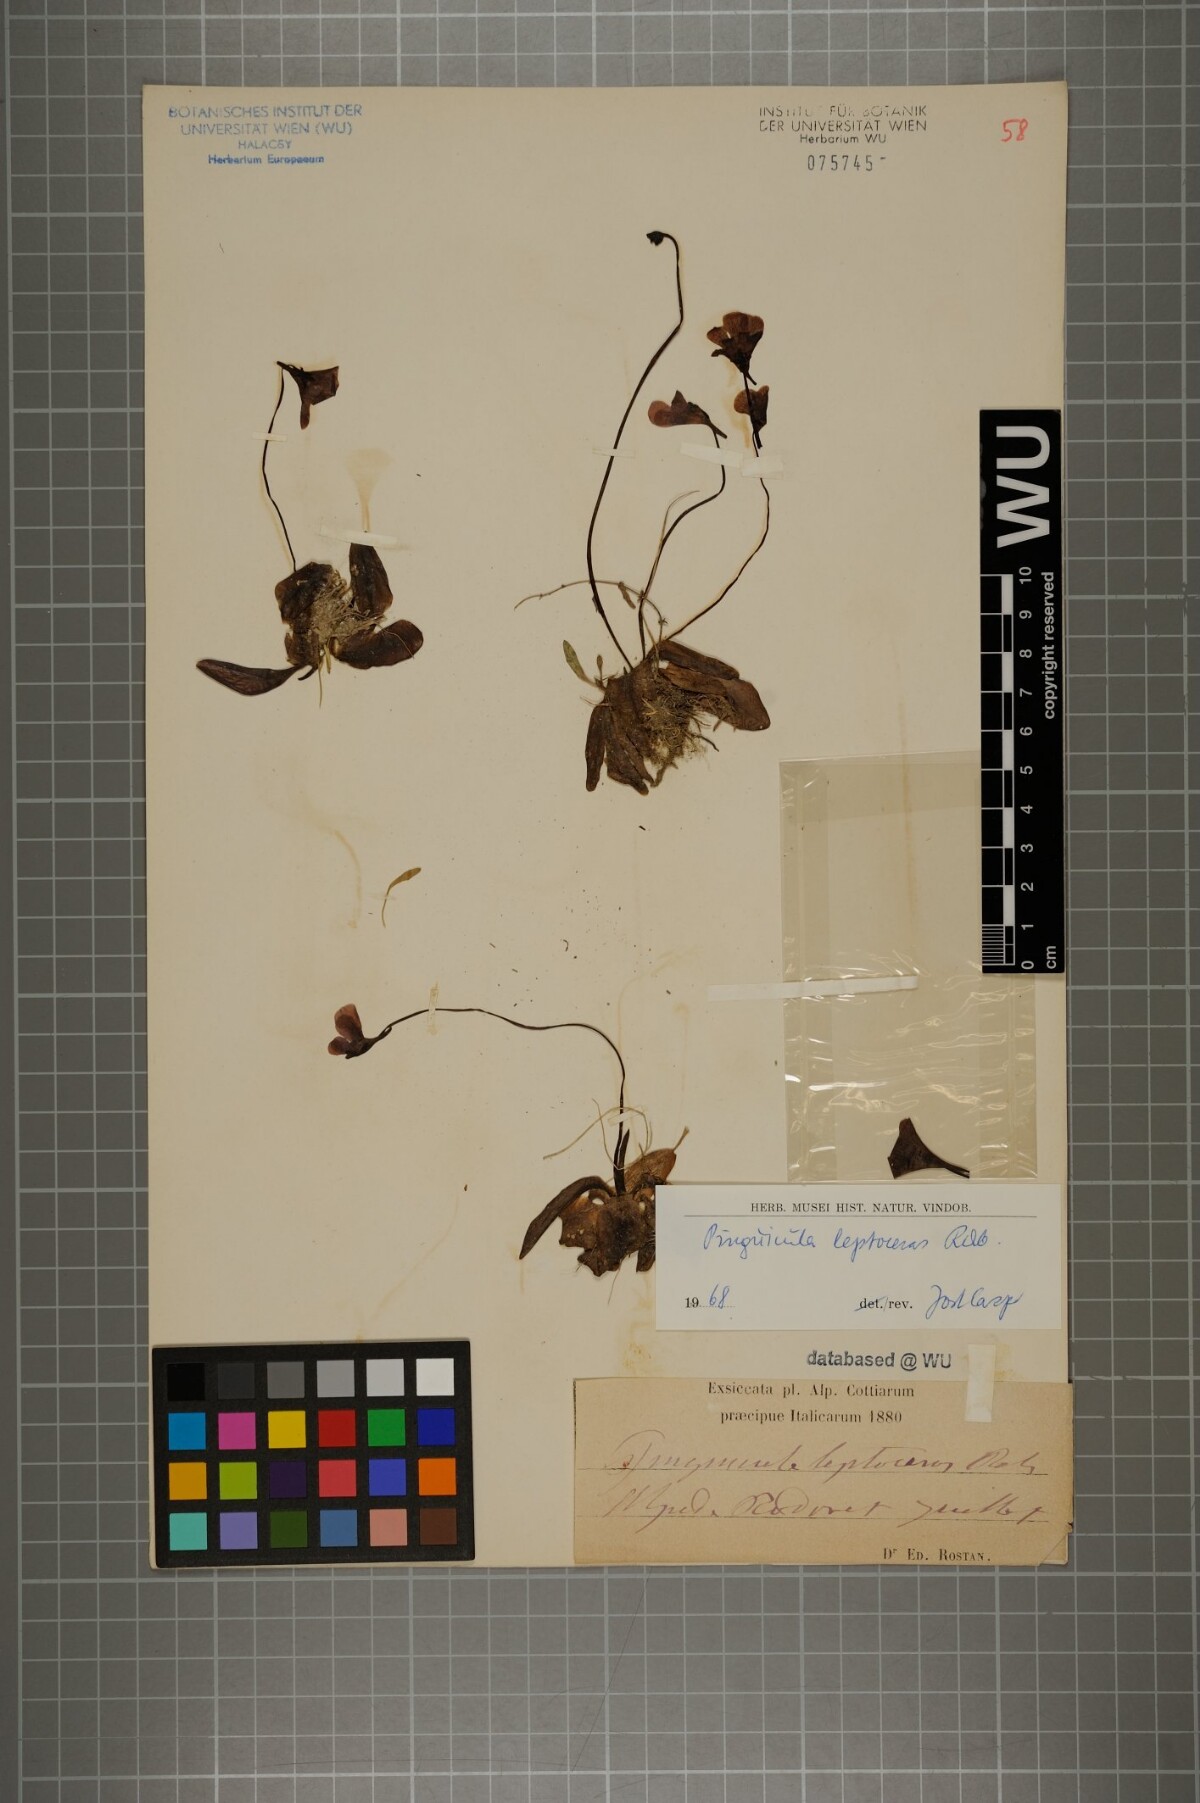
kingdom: Plantae
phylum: Tracheophyta
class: Magnoliopsida
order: Lamiales
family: Lentibulariaceae
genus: Pinguicula
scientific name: Pinguicula leptoceras
